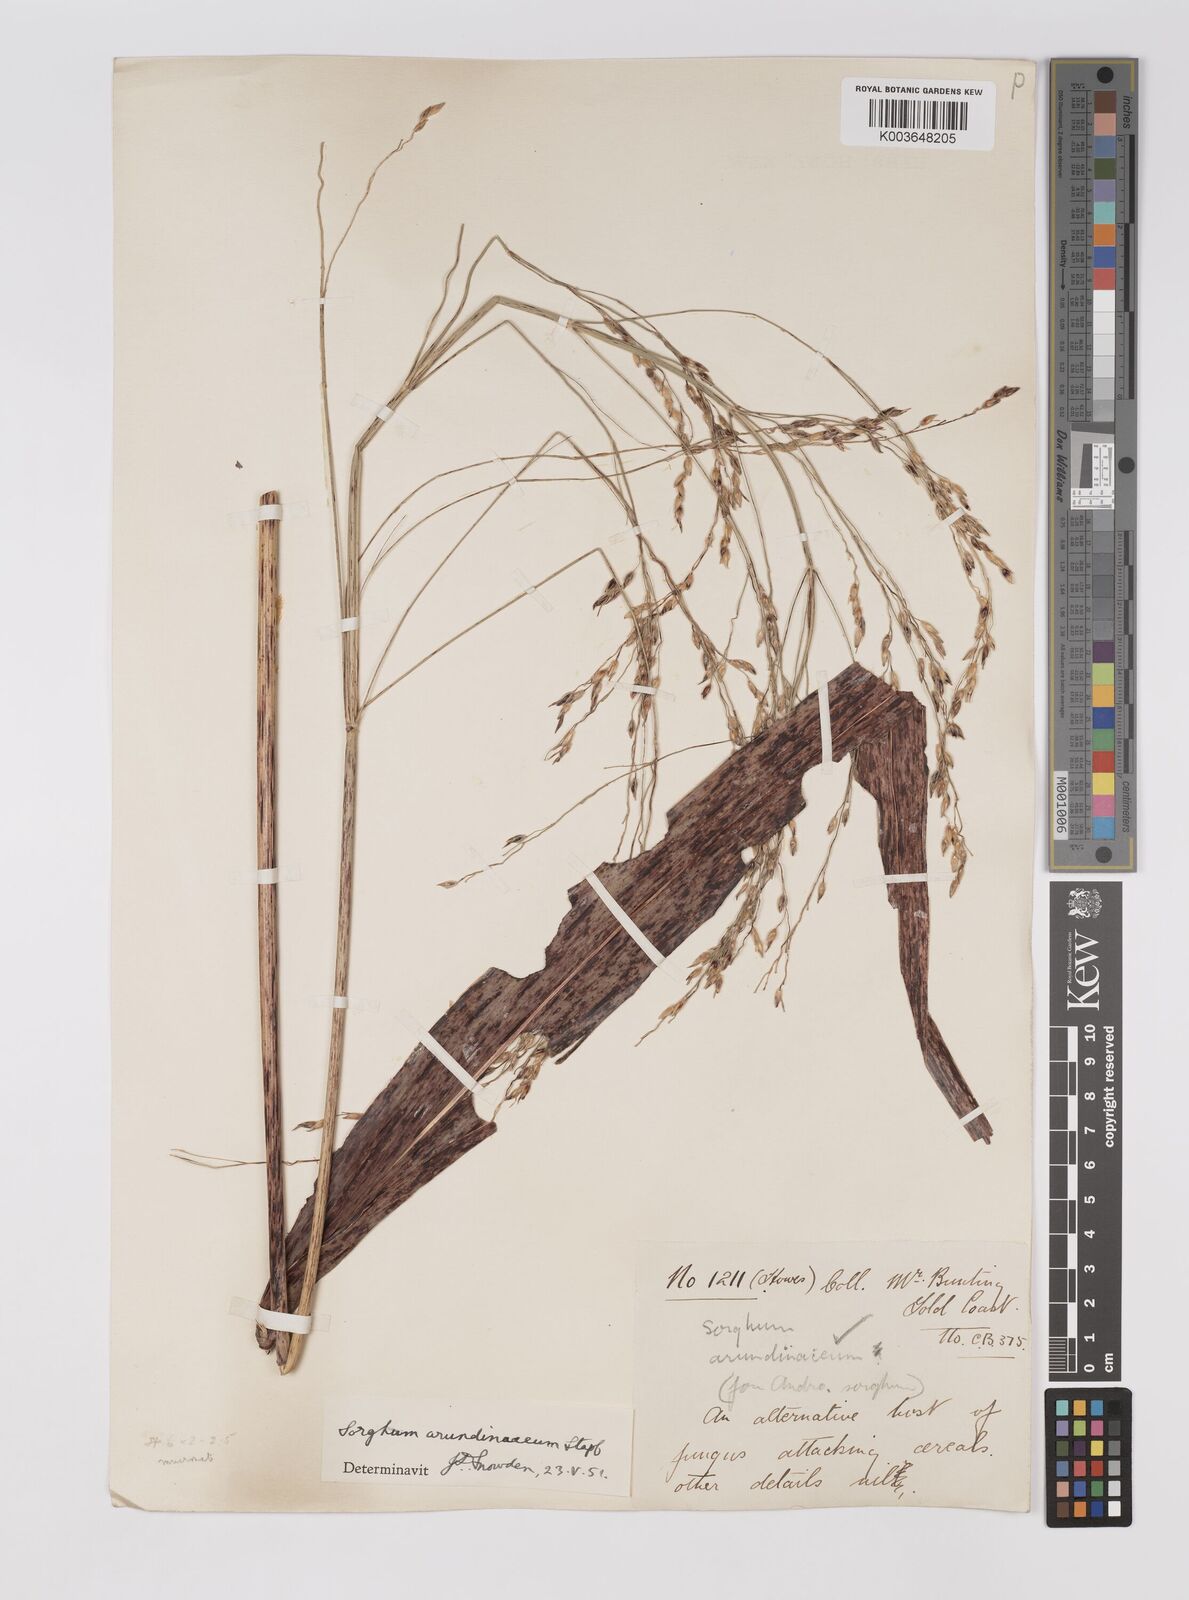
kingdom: Plantae
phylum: Tracheophyta
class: Liliopsida
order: Poales
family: Poaceae
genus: Sorghum
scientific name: Sorghum arundinaceum
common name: Sorghum
